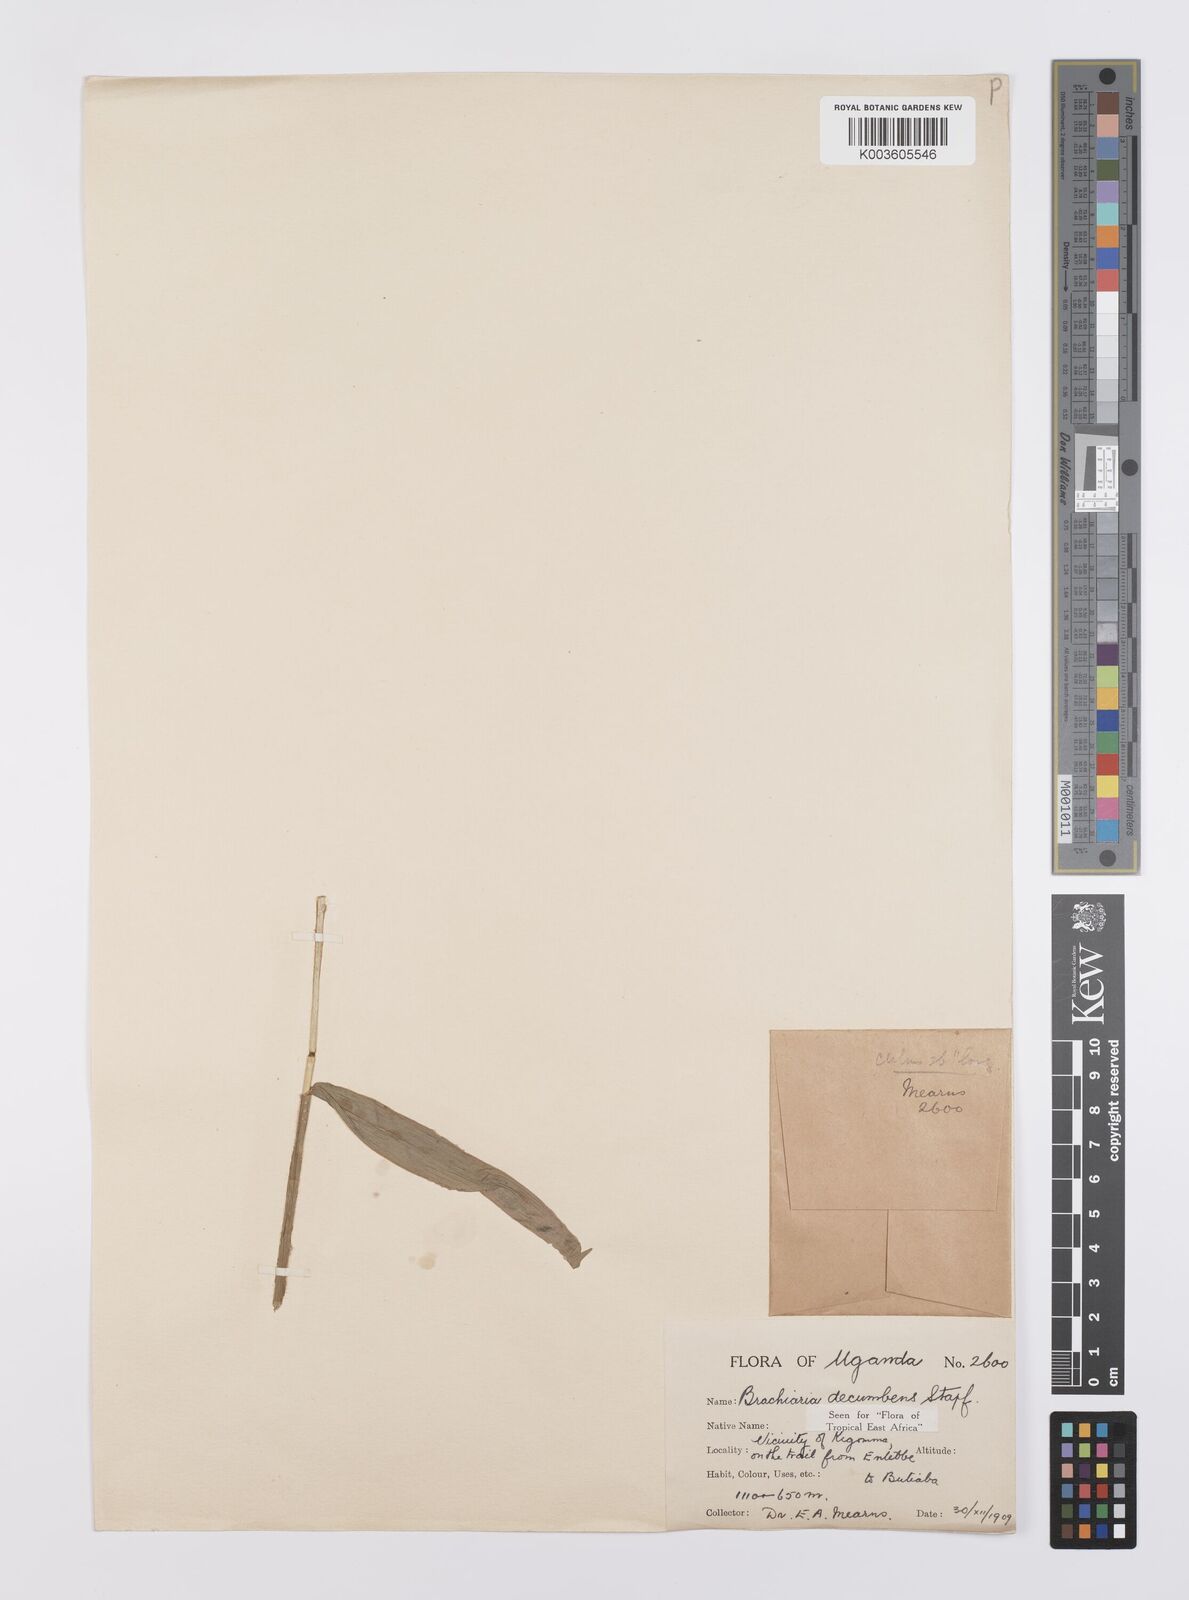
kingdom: Plantae
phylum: Tracheophyta
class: Liliopsida
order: Poales
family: Poaceae
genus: Urochloa
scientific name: Urochloa eminii
